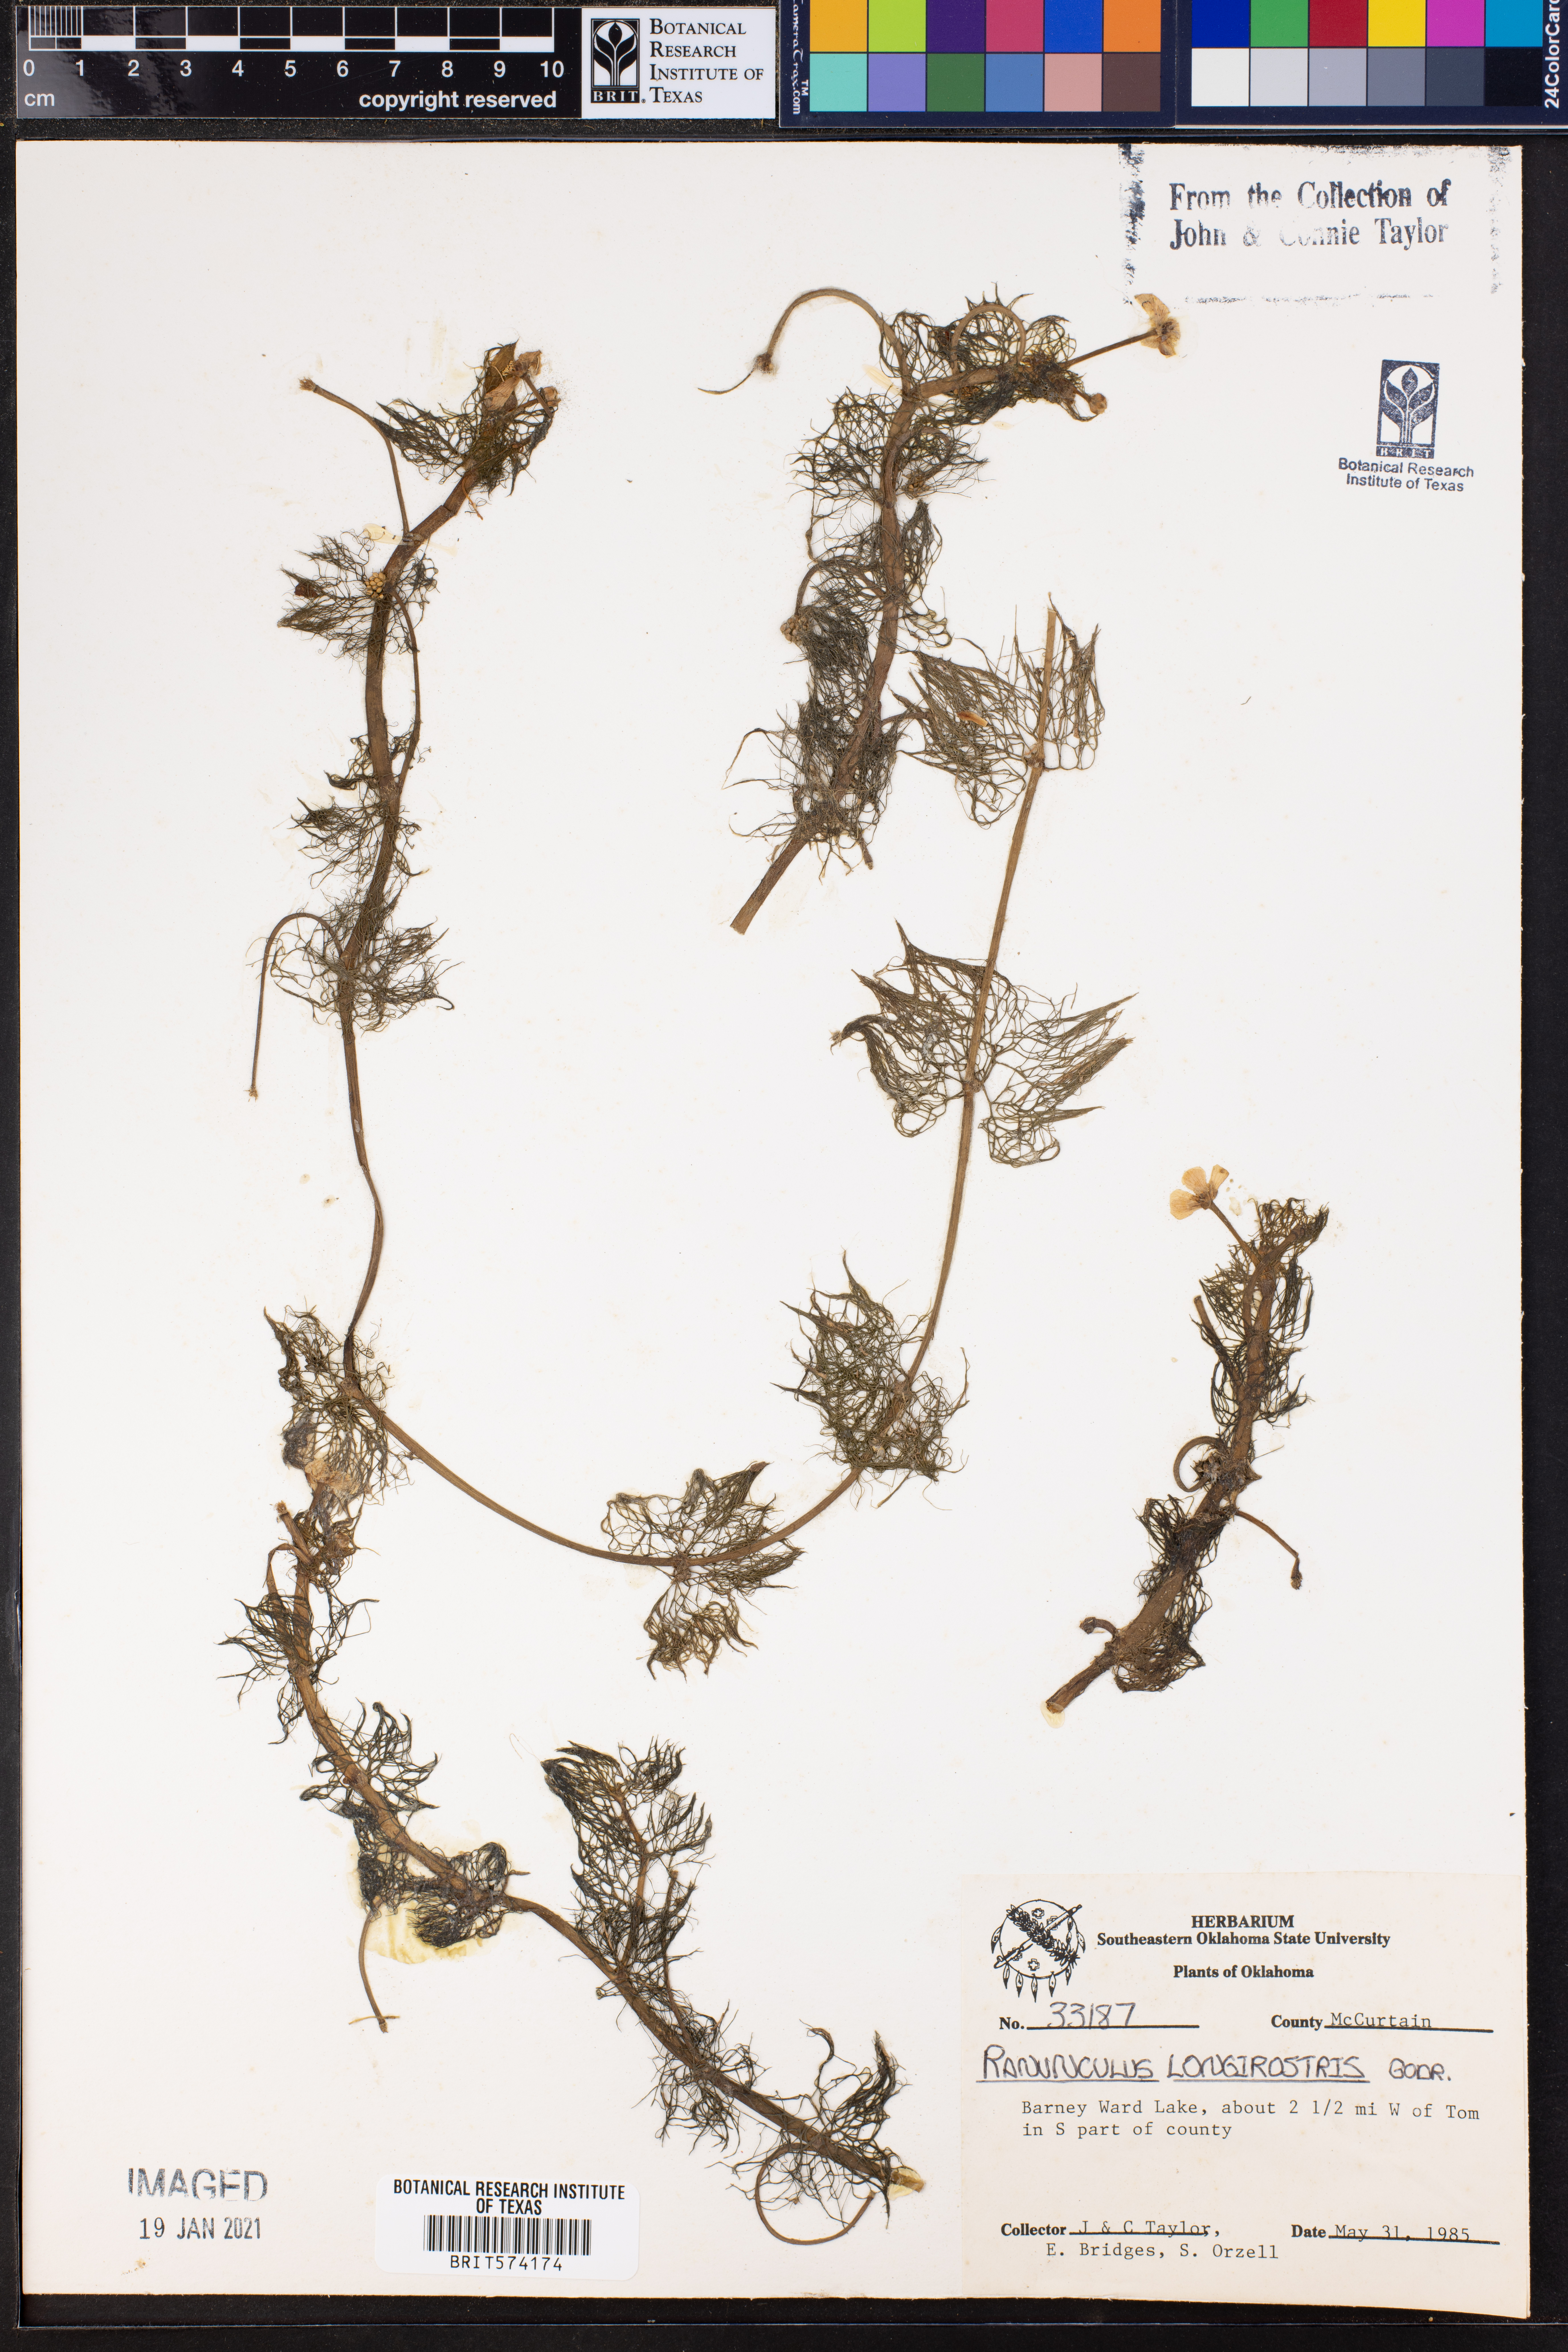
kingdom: Plantae
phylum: Tracheophyta
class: Magnoliopsida
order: Ranunculales
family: Ranunculaceae
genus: Ranunculus
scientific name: Ranunculus longirostris
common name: Curly white water-crowfoot
